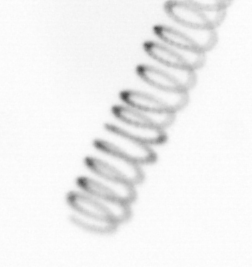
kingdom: Chromista
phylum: Ochrophyta
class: Bacillariophyceae
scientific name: Bacillariophyceae
